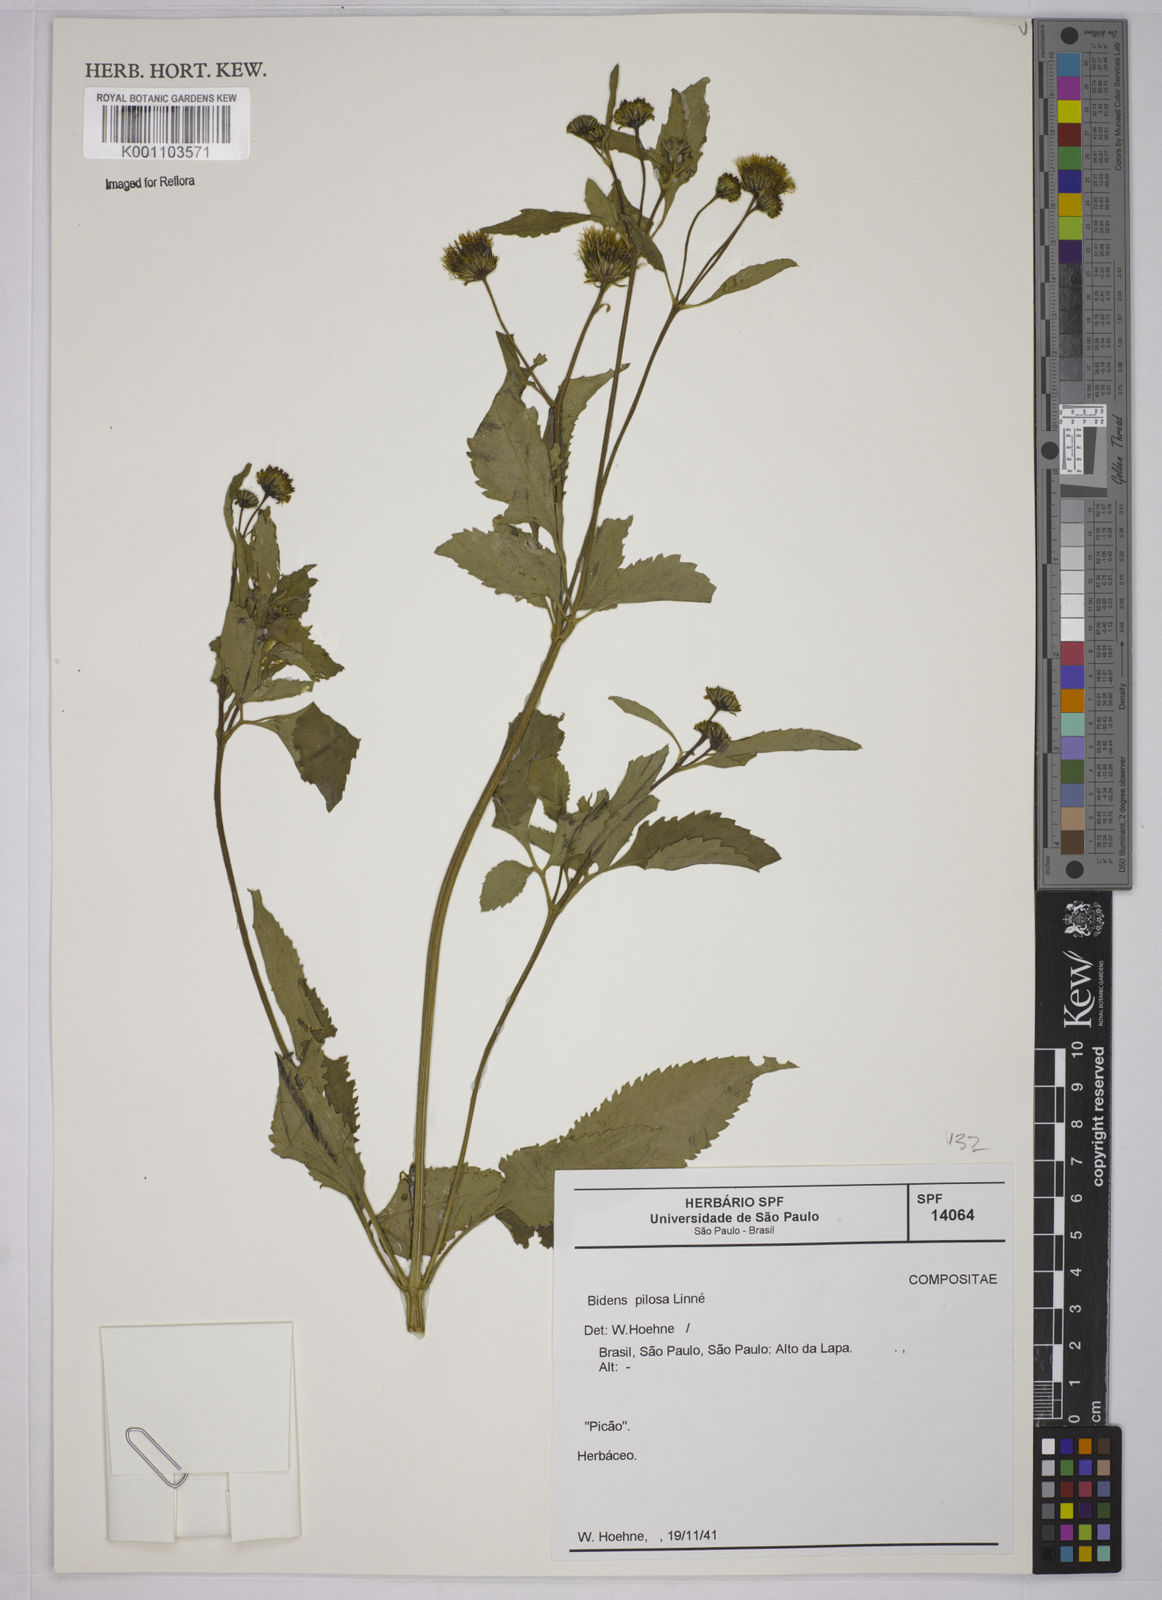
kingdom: Plantae
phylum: Tracheophyta
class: Magnoliopsida
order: Asterales
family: Asteraceae
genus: Bidens
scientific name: Bidens pilosa
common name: Black-jack
